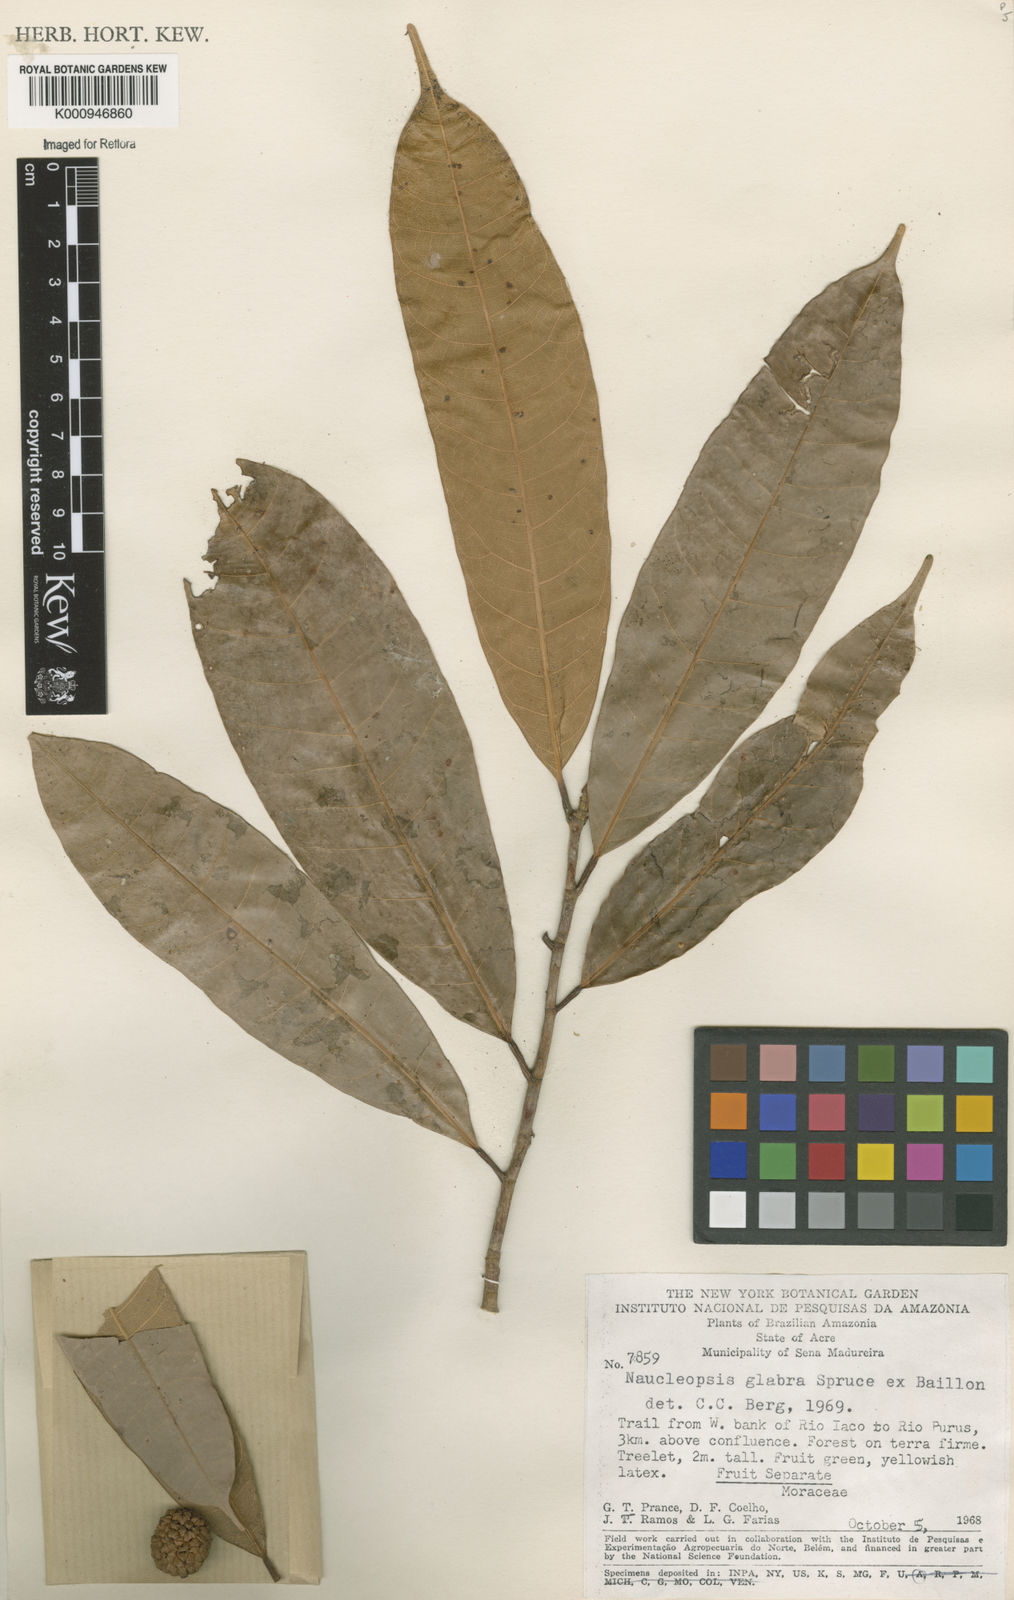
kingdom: Plantae
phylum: Tracheophyta
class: Magnoliopsida
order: Rosales
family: Moraceae
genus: Naucleopsis
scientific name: Naucleopsis glabra
